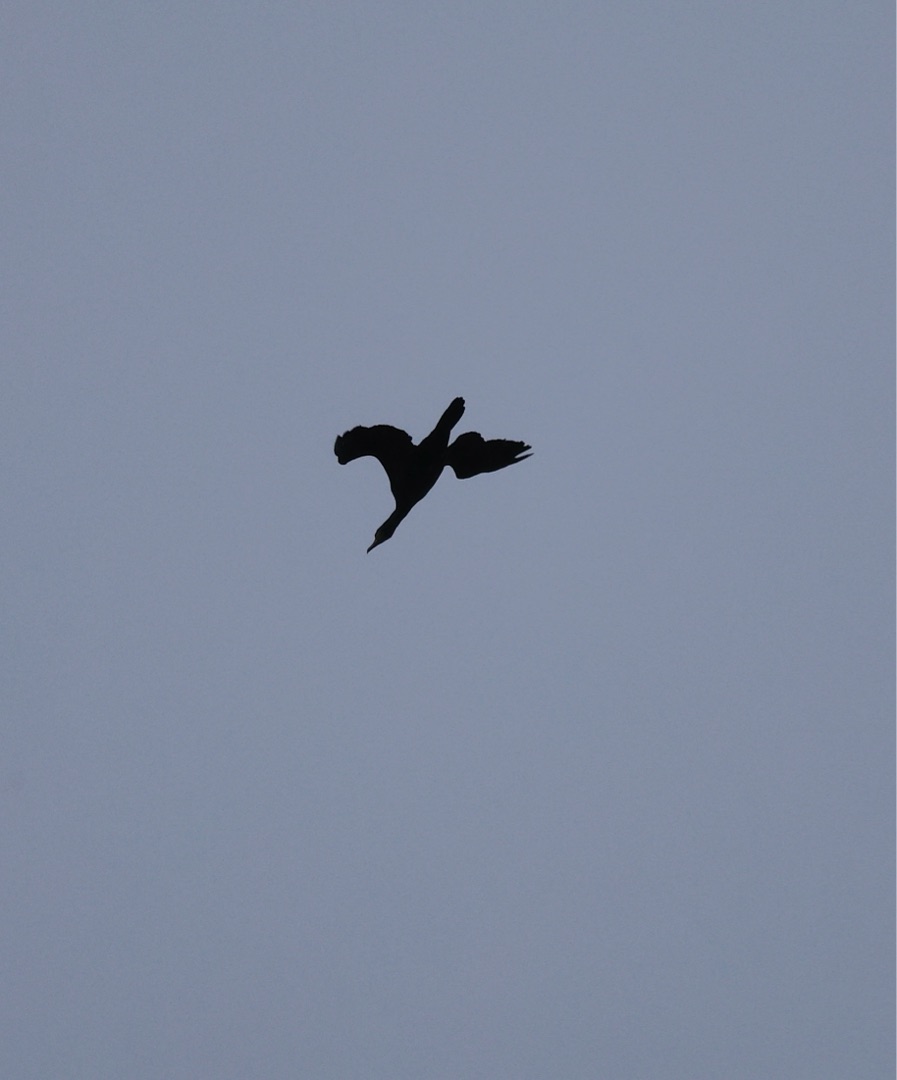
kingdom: Animalia
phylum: Chordata
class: Aves
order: Suliformes
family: Phalacrocoracidae
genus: Phalacrocorax
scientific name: Phalacrocorax carbo
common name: Skarv
